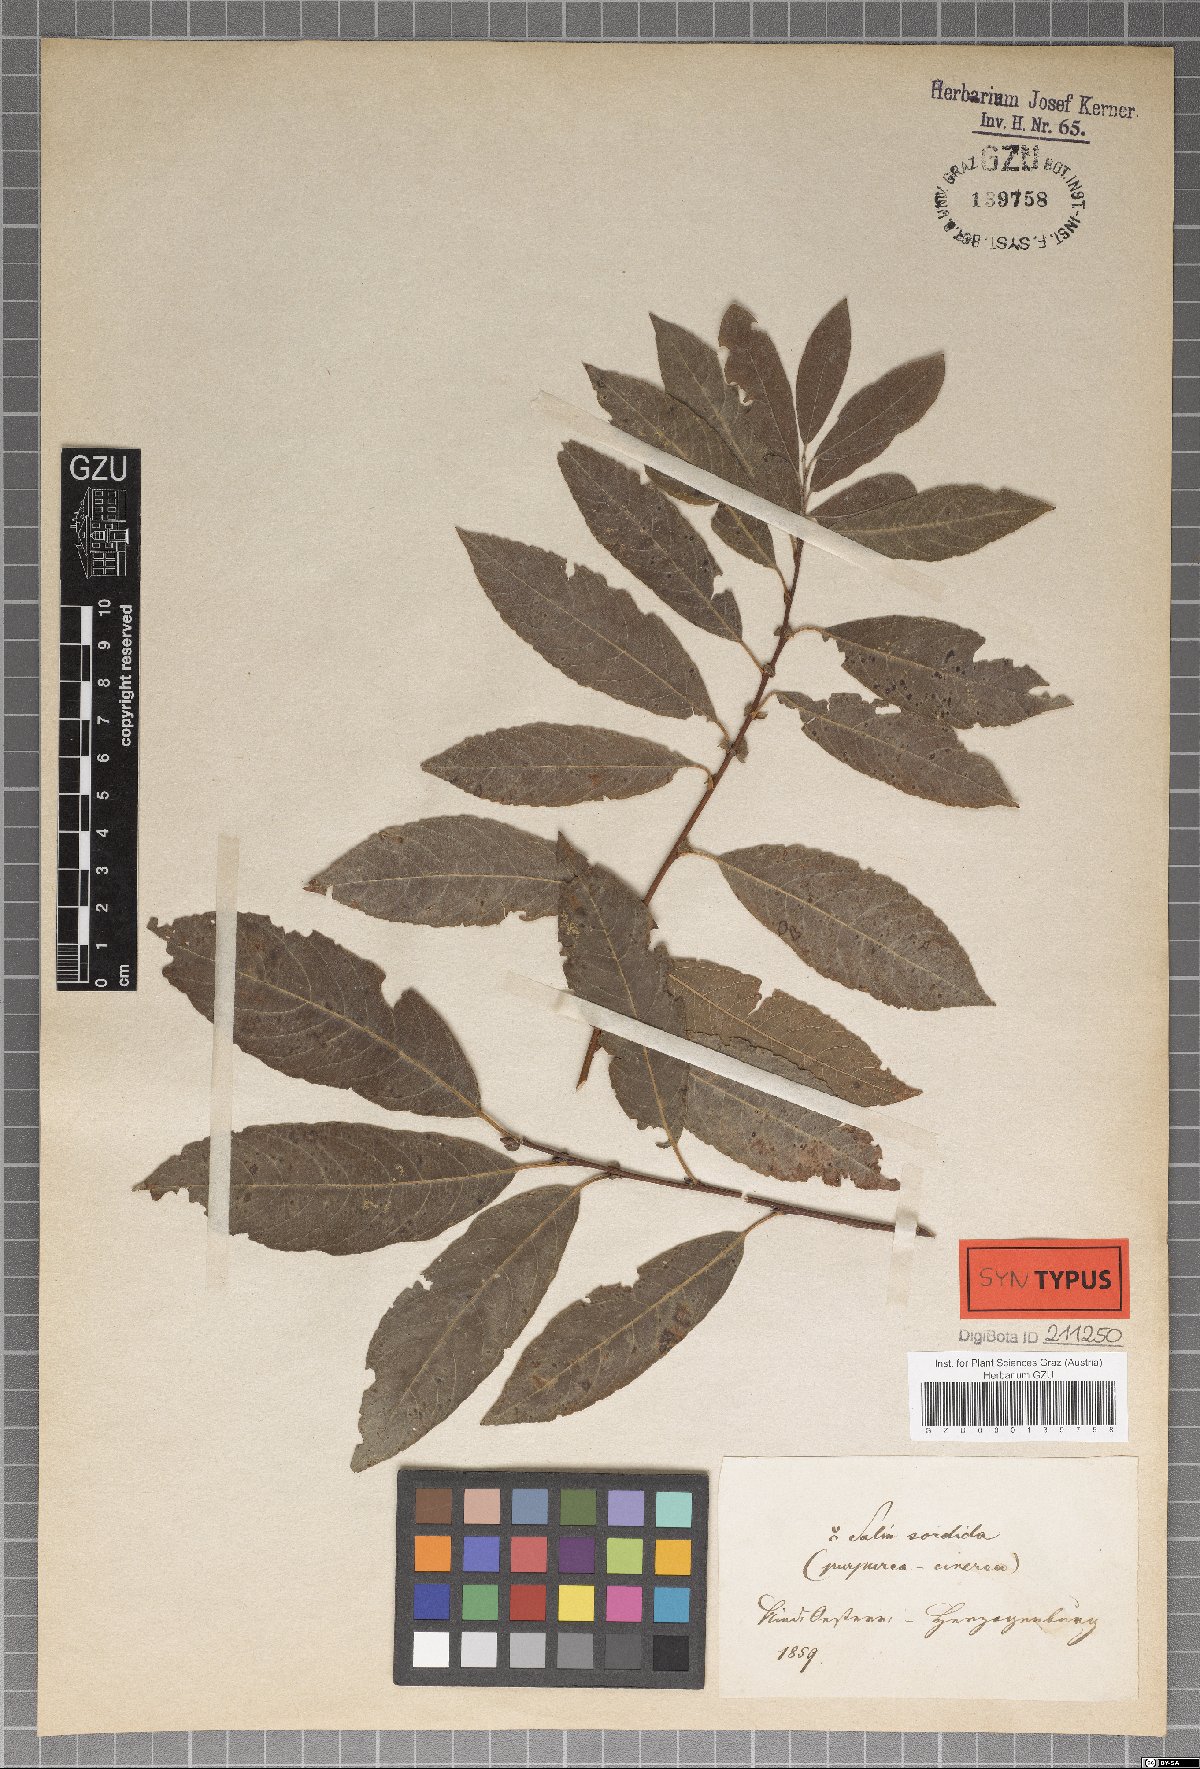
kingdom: Plantae
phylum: Tracheophyta
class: Magnoliopsida
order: Malpighiales
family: Salicaceae
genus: Salix
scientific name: Salix sordida
